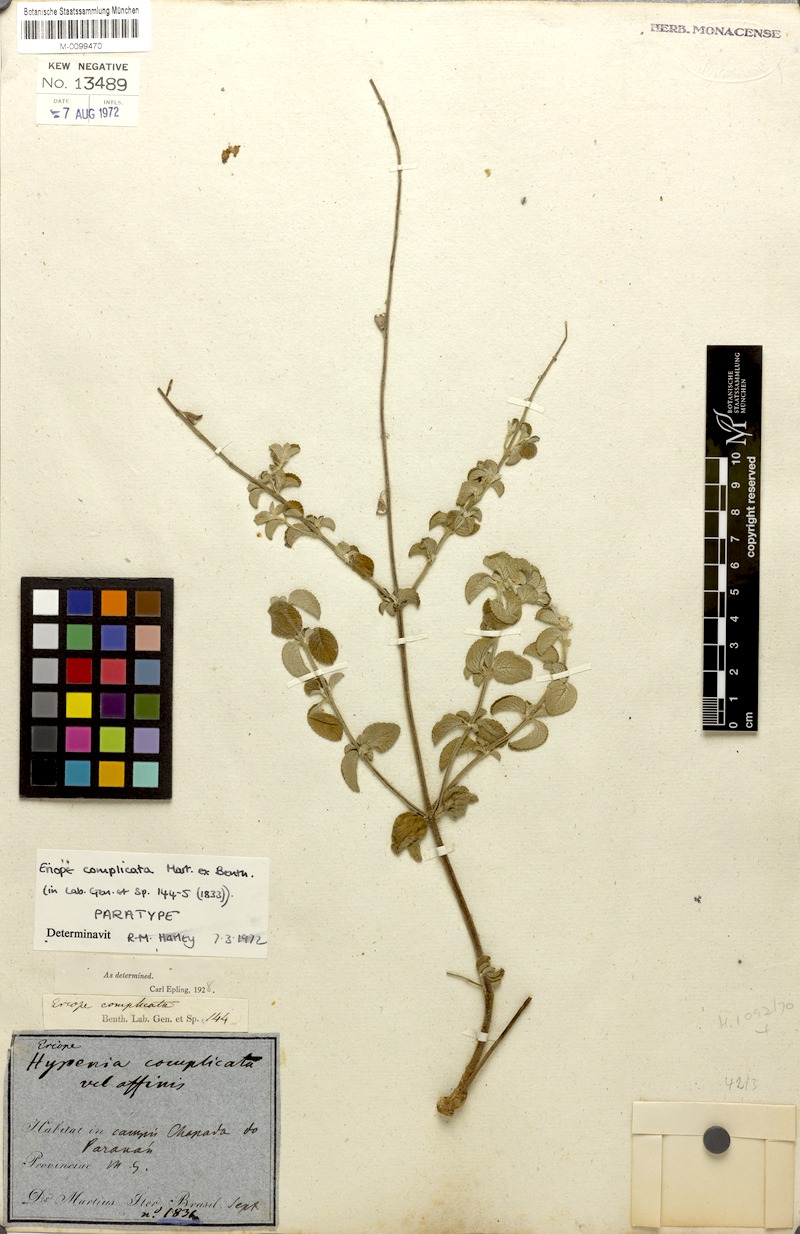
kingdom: Plantae
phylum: Tracheophyta
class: Magnoliopsida
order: Lamiales
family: Lamiaceae
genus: Eriope
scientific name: Eriope complicata
